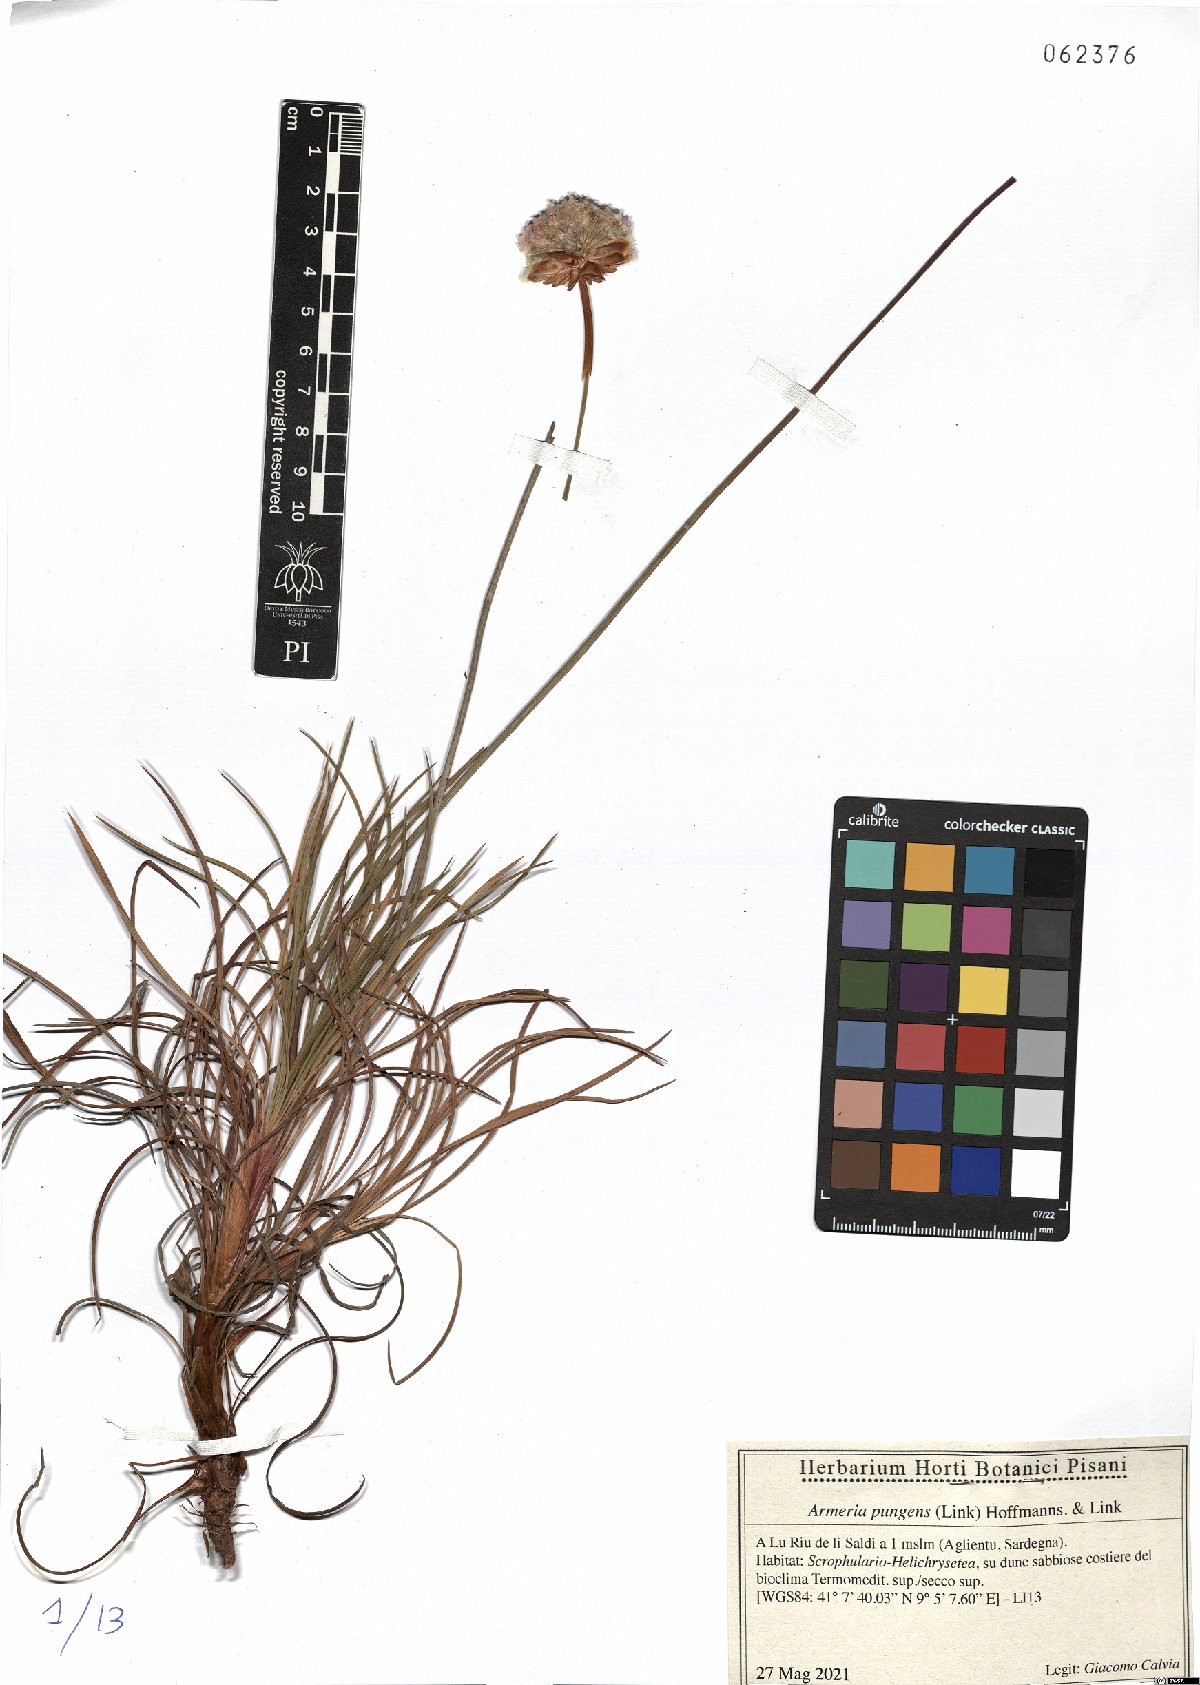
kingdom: Plantae
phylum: Tracheophyta
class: Magnoliopsida
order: Caryophyllales
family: Plumbaginaceae
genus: Armeria
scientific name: Armeria pungens
